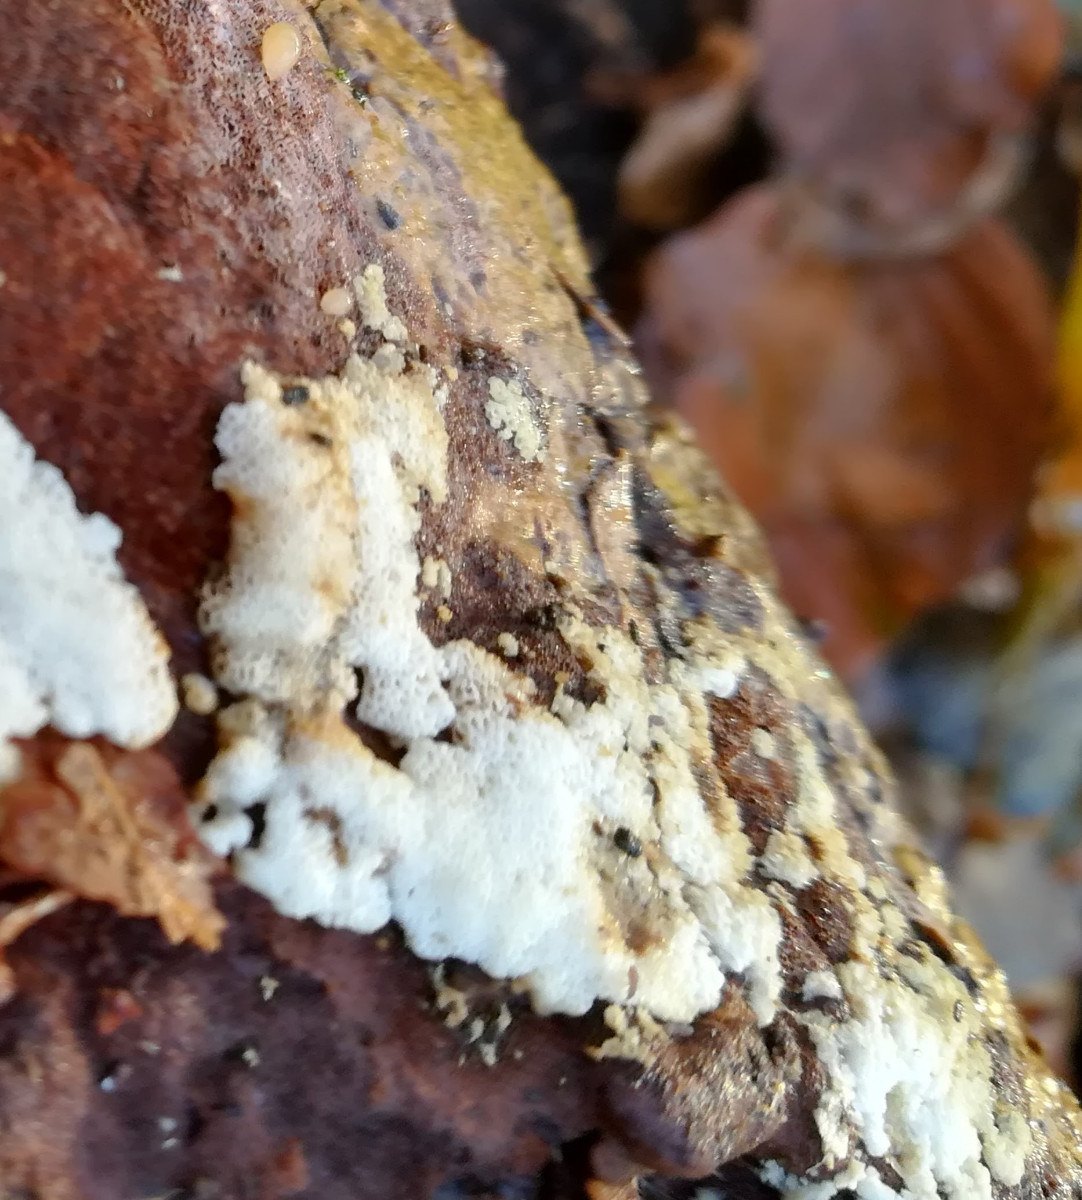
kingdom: Fungi
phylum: Basidiomycota
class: Agaricomycetes
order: Polyporales
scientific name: Polyporales
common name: poresvampordenen
